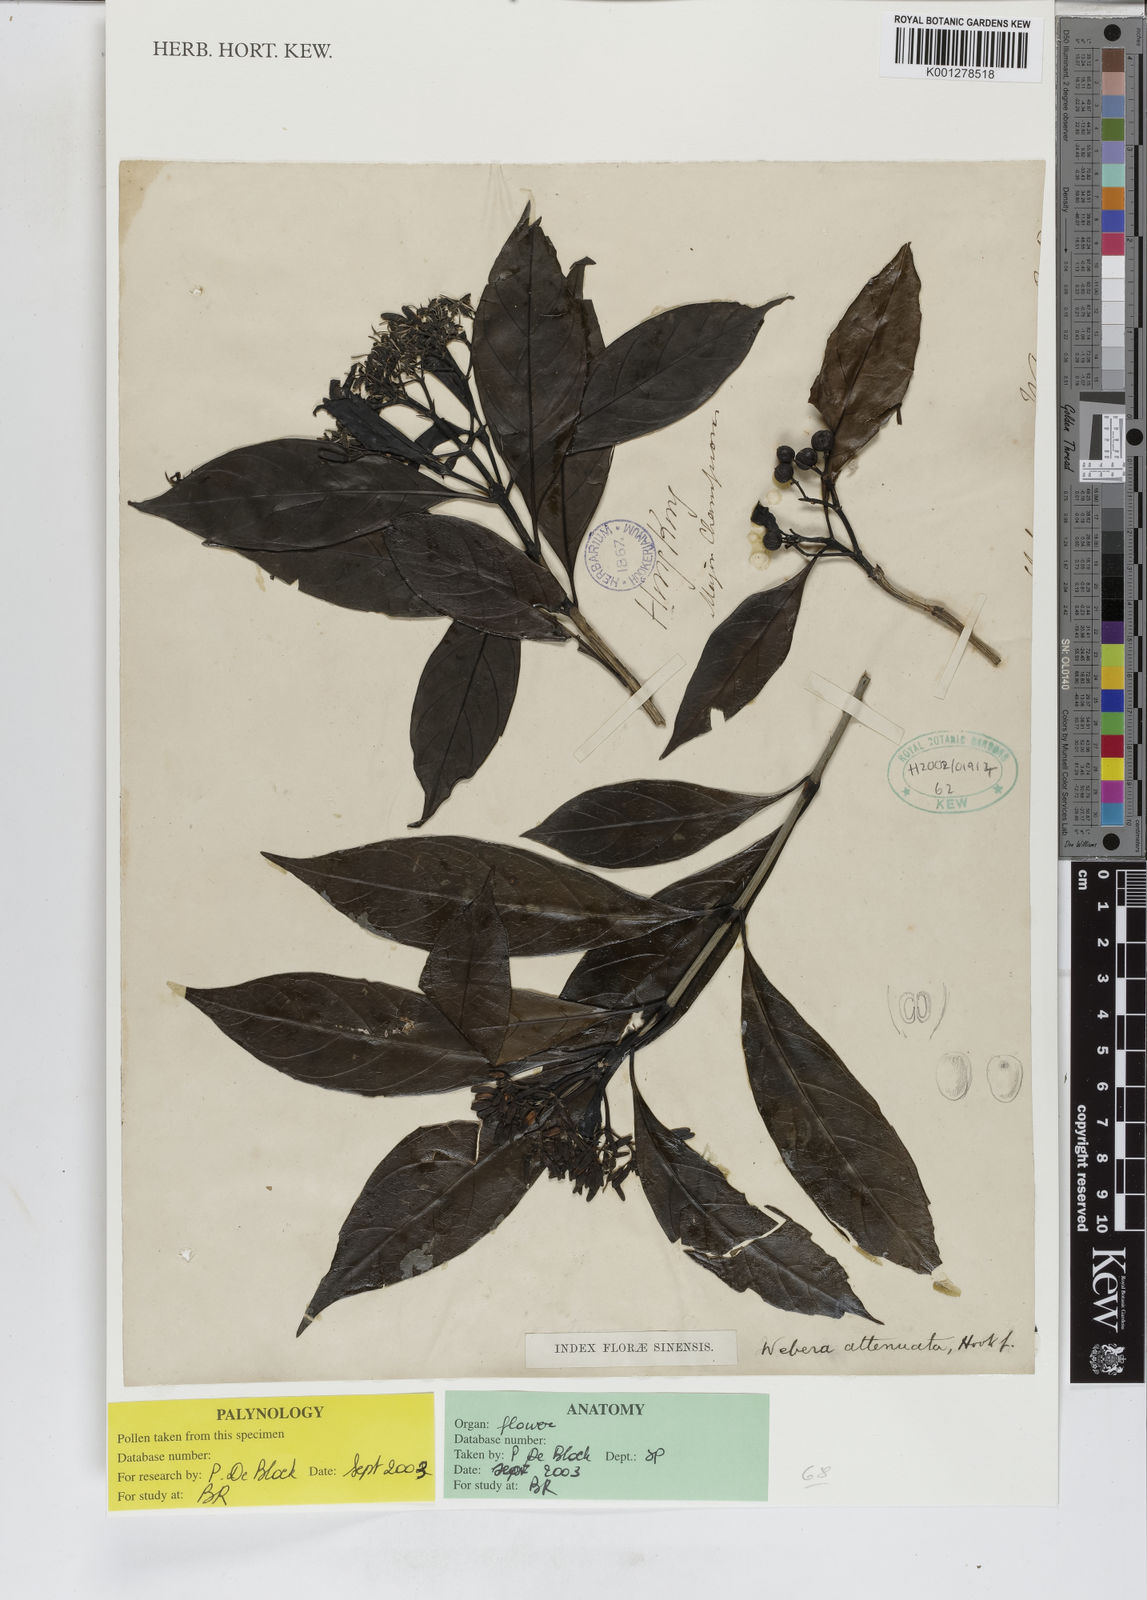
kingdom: Plantae
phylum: Tracheophyta
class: Magnoliopsida
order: Gentianales
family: Rubiaceae
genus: Tarenna
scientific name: Tarenna attenuata
